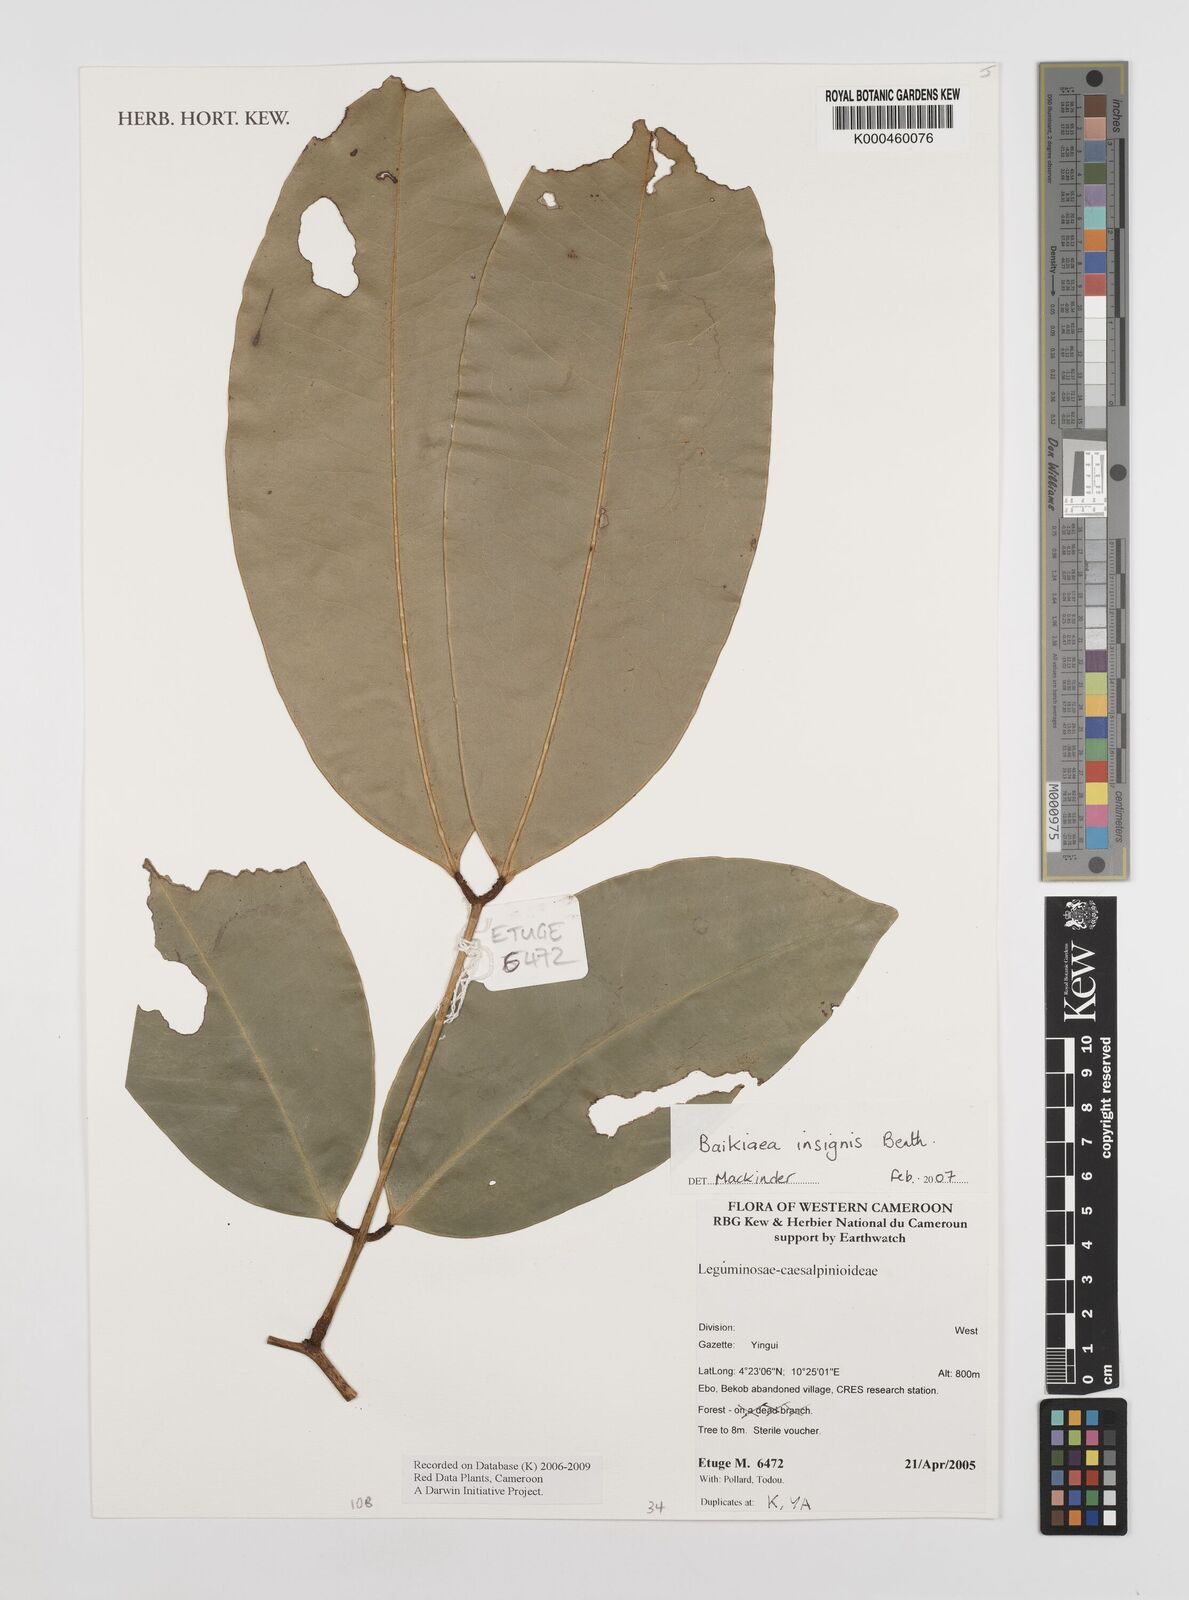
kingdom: Plantae
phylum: Tracheophyta
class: Magnoliopsida
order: Fabales
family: Fabaceae
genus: Baikiaea
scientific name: Baikiaea insignis
